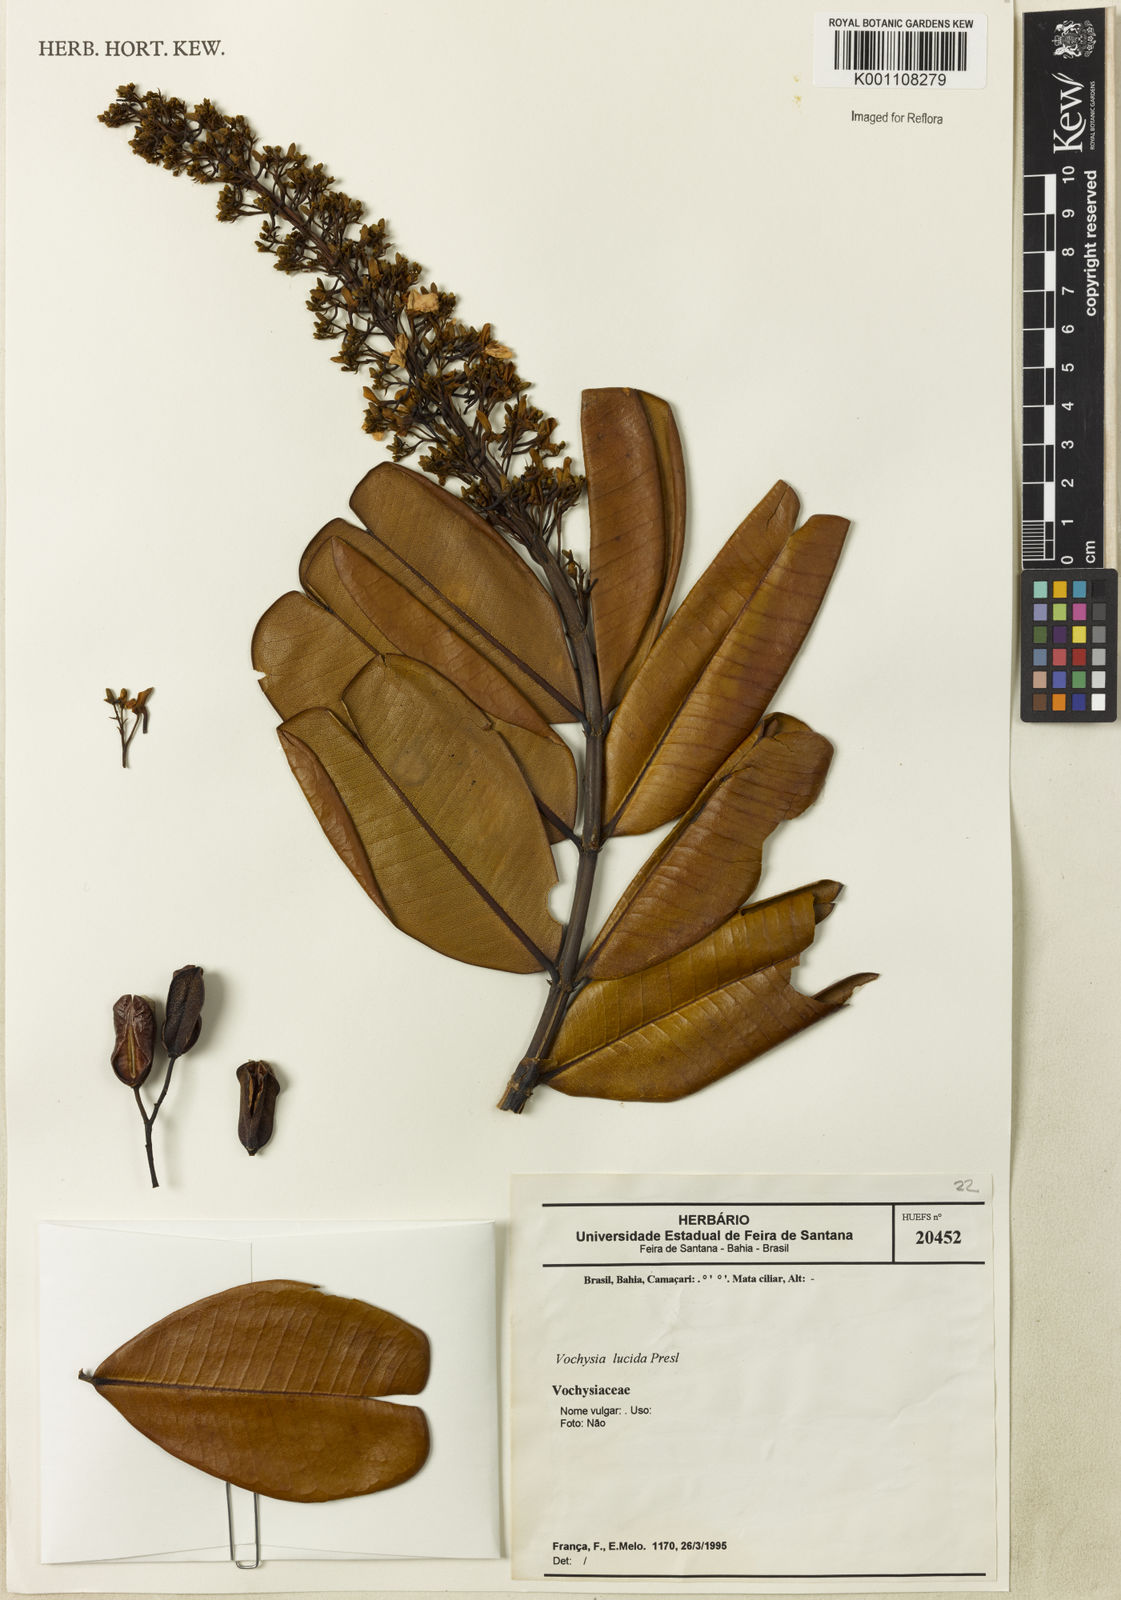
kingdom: Plantae
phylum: Tracheophyta
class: Magnoliopsida
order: Myrtales
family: Vochysiaceae
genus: Vochysia
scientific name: Vochysia lucida
